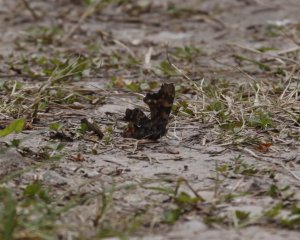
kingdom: Animalia
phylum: Arthropoda
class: Insecta
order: Lepidoptera
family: Nymphalidae
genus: Polygonia
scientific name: Polygonia faunus
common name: Green Comma
